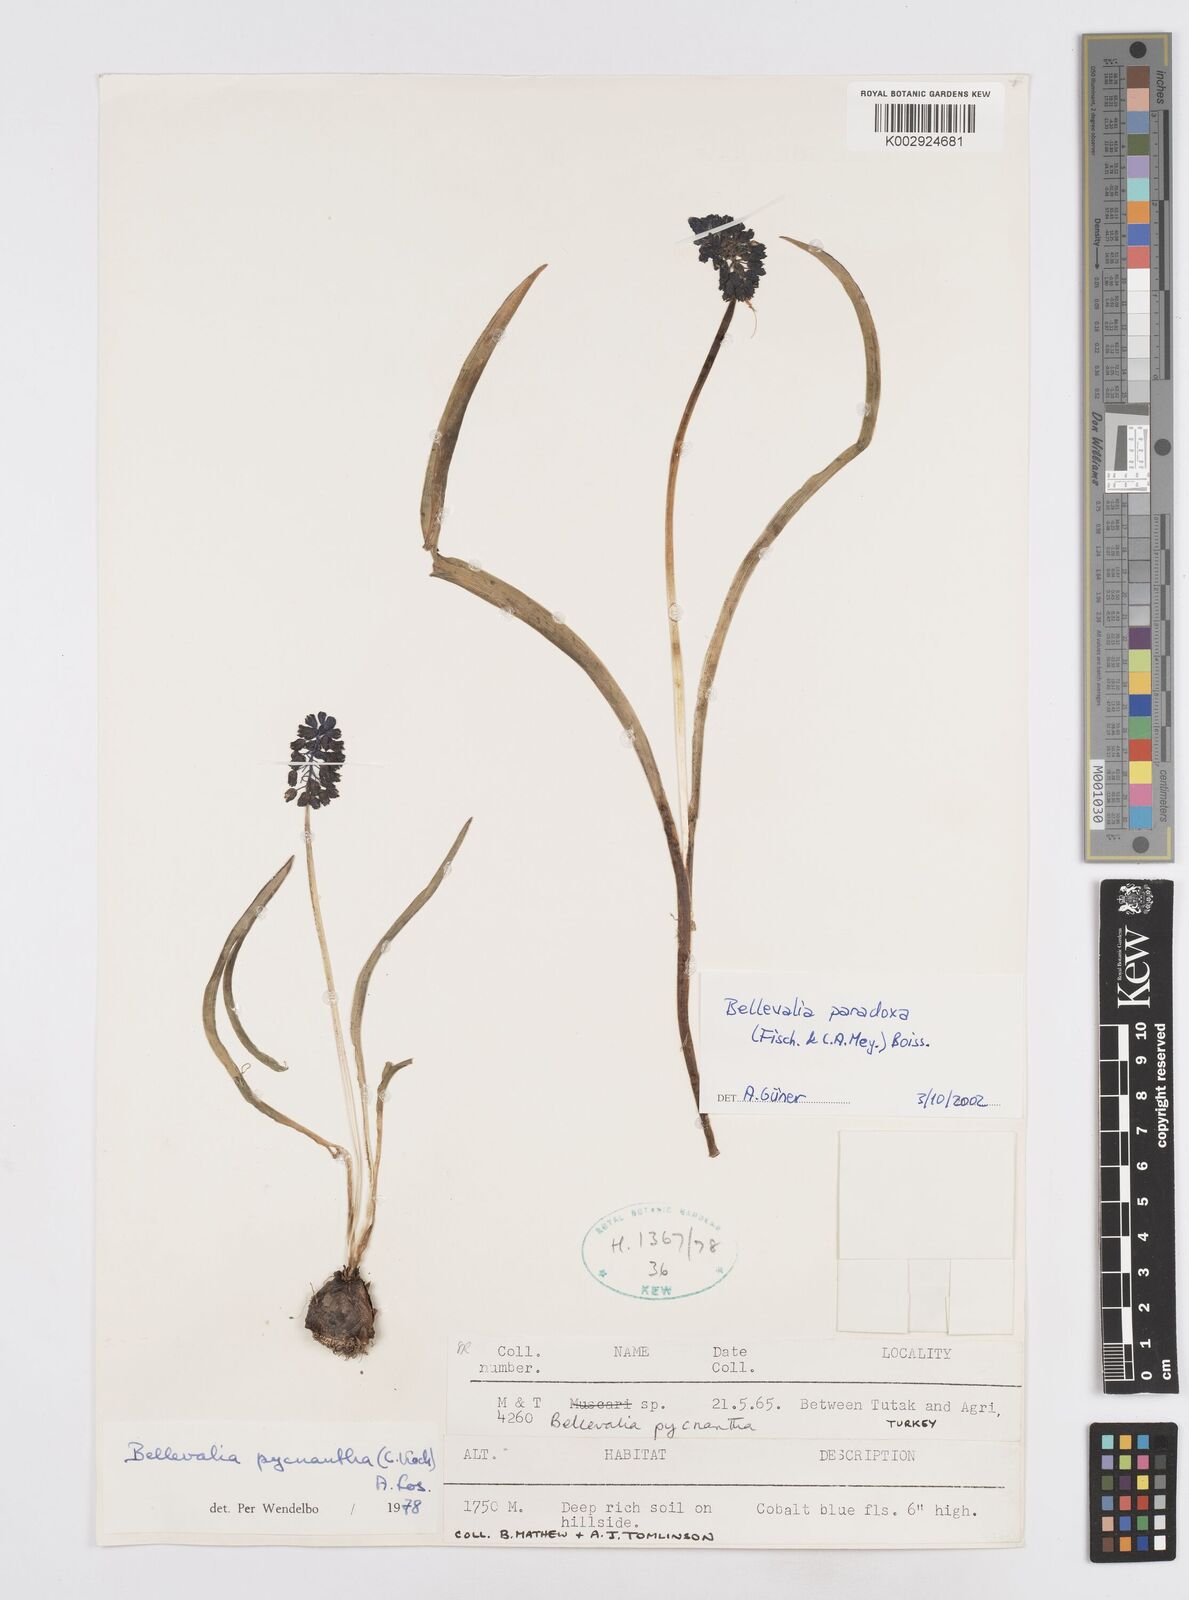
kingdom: Plantae
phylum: Tracheophyta
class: Liliopsida
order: Asparagales
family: Asparagaceae
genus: Bellevalia
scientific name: Bellevalia paradoxa
